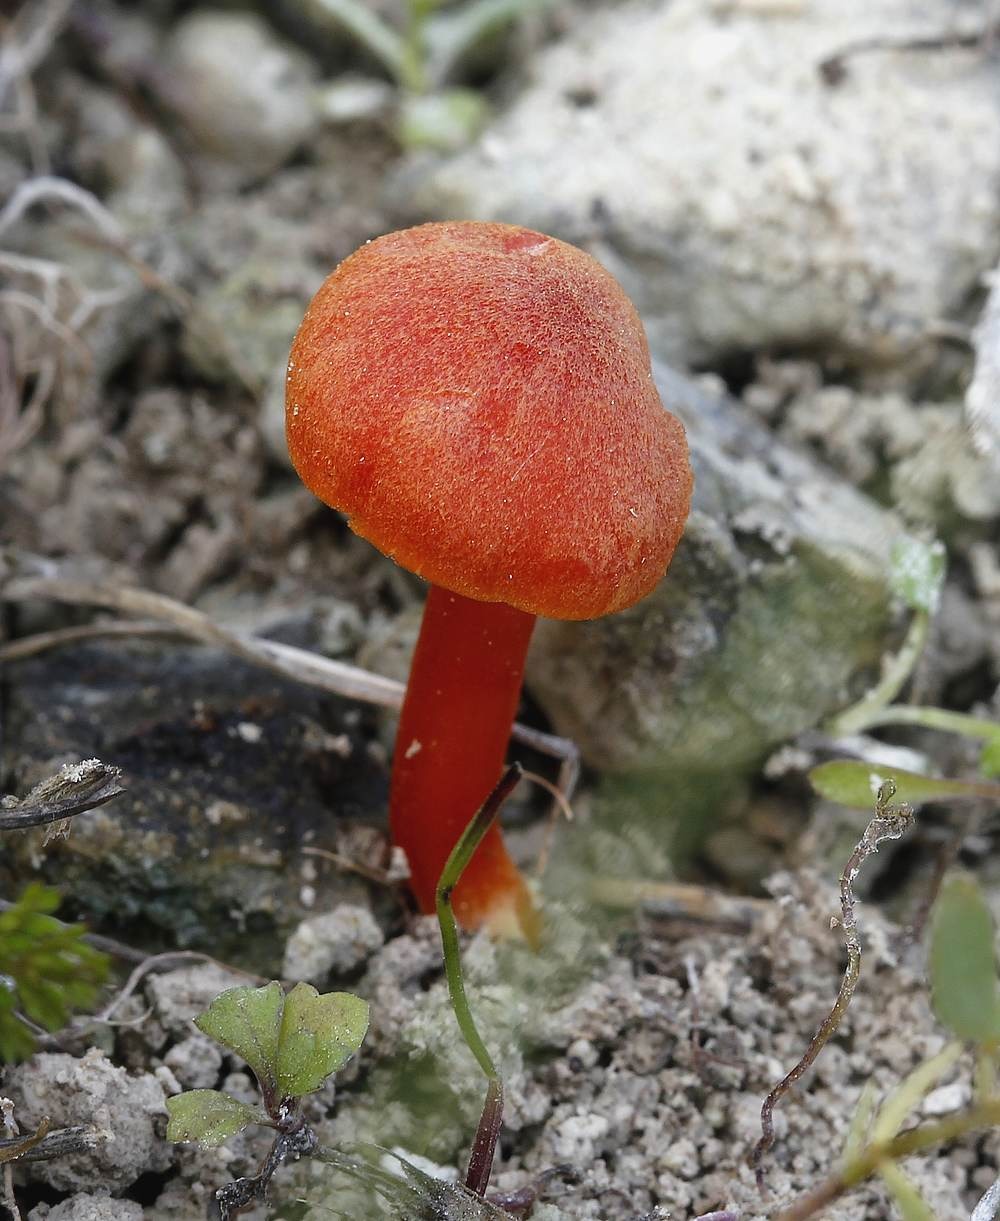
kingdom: Fungi
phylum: Basidiomycota
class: Agaricomycetes
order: Agaricales
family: Hygrophoraceae
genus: Hygrocybe
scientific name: Hygrocybe calciphila
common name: kalk-vokshat
